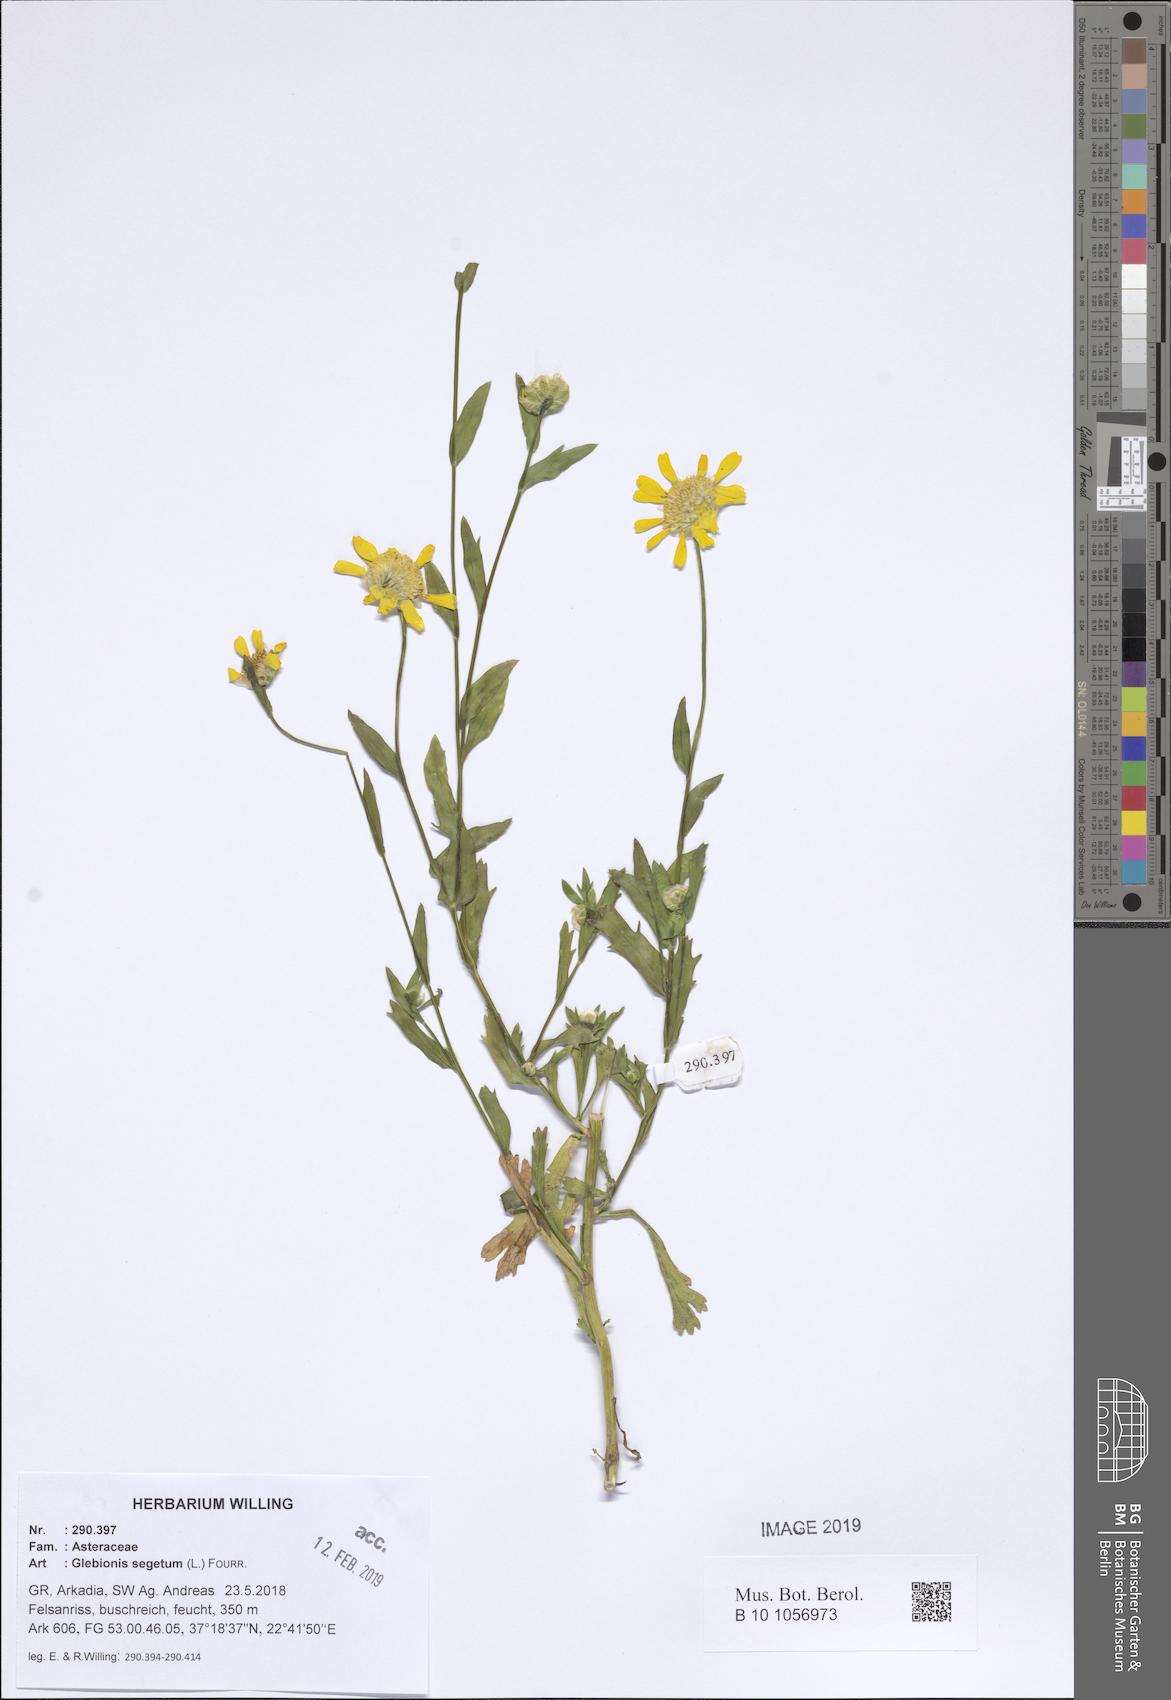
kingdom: Plantae
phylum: Tracheophyta
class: Magnoliopsida
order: Asterales
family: Asteraceae
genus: Glebionis
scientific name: Glebionis segetum
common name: Corndaisy
